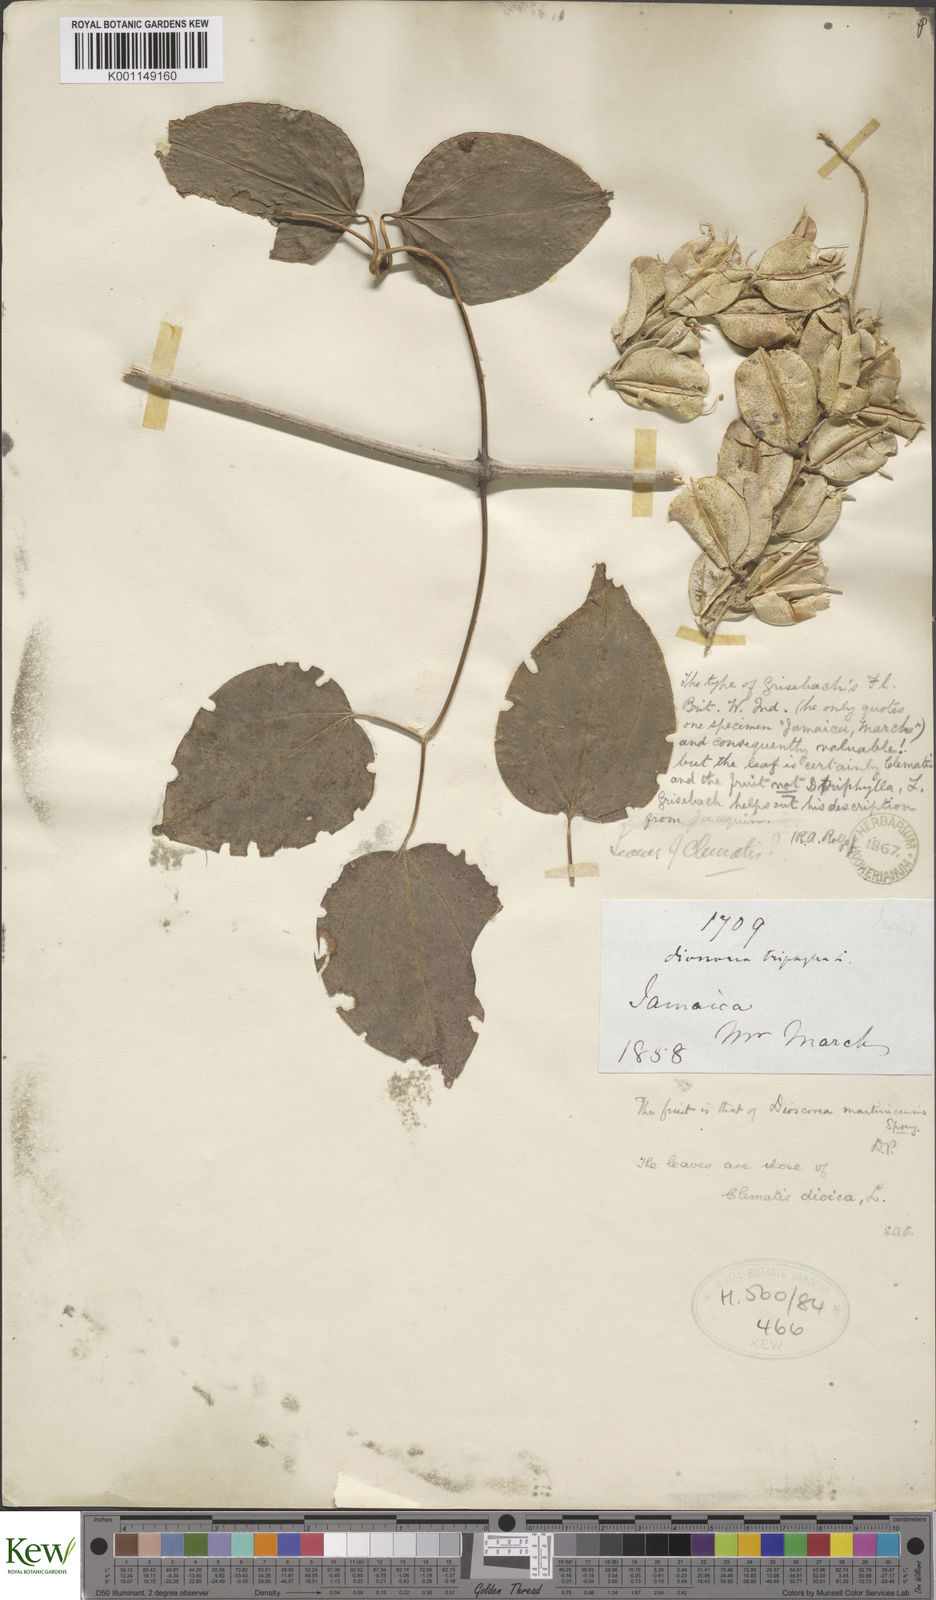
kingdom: Plantae
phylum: Tracheophyta
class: Liliopsida
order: Dioscoreales
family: Dioscoreaceae
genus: Dioscorea
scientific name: Dioscorea polygonoides
